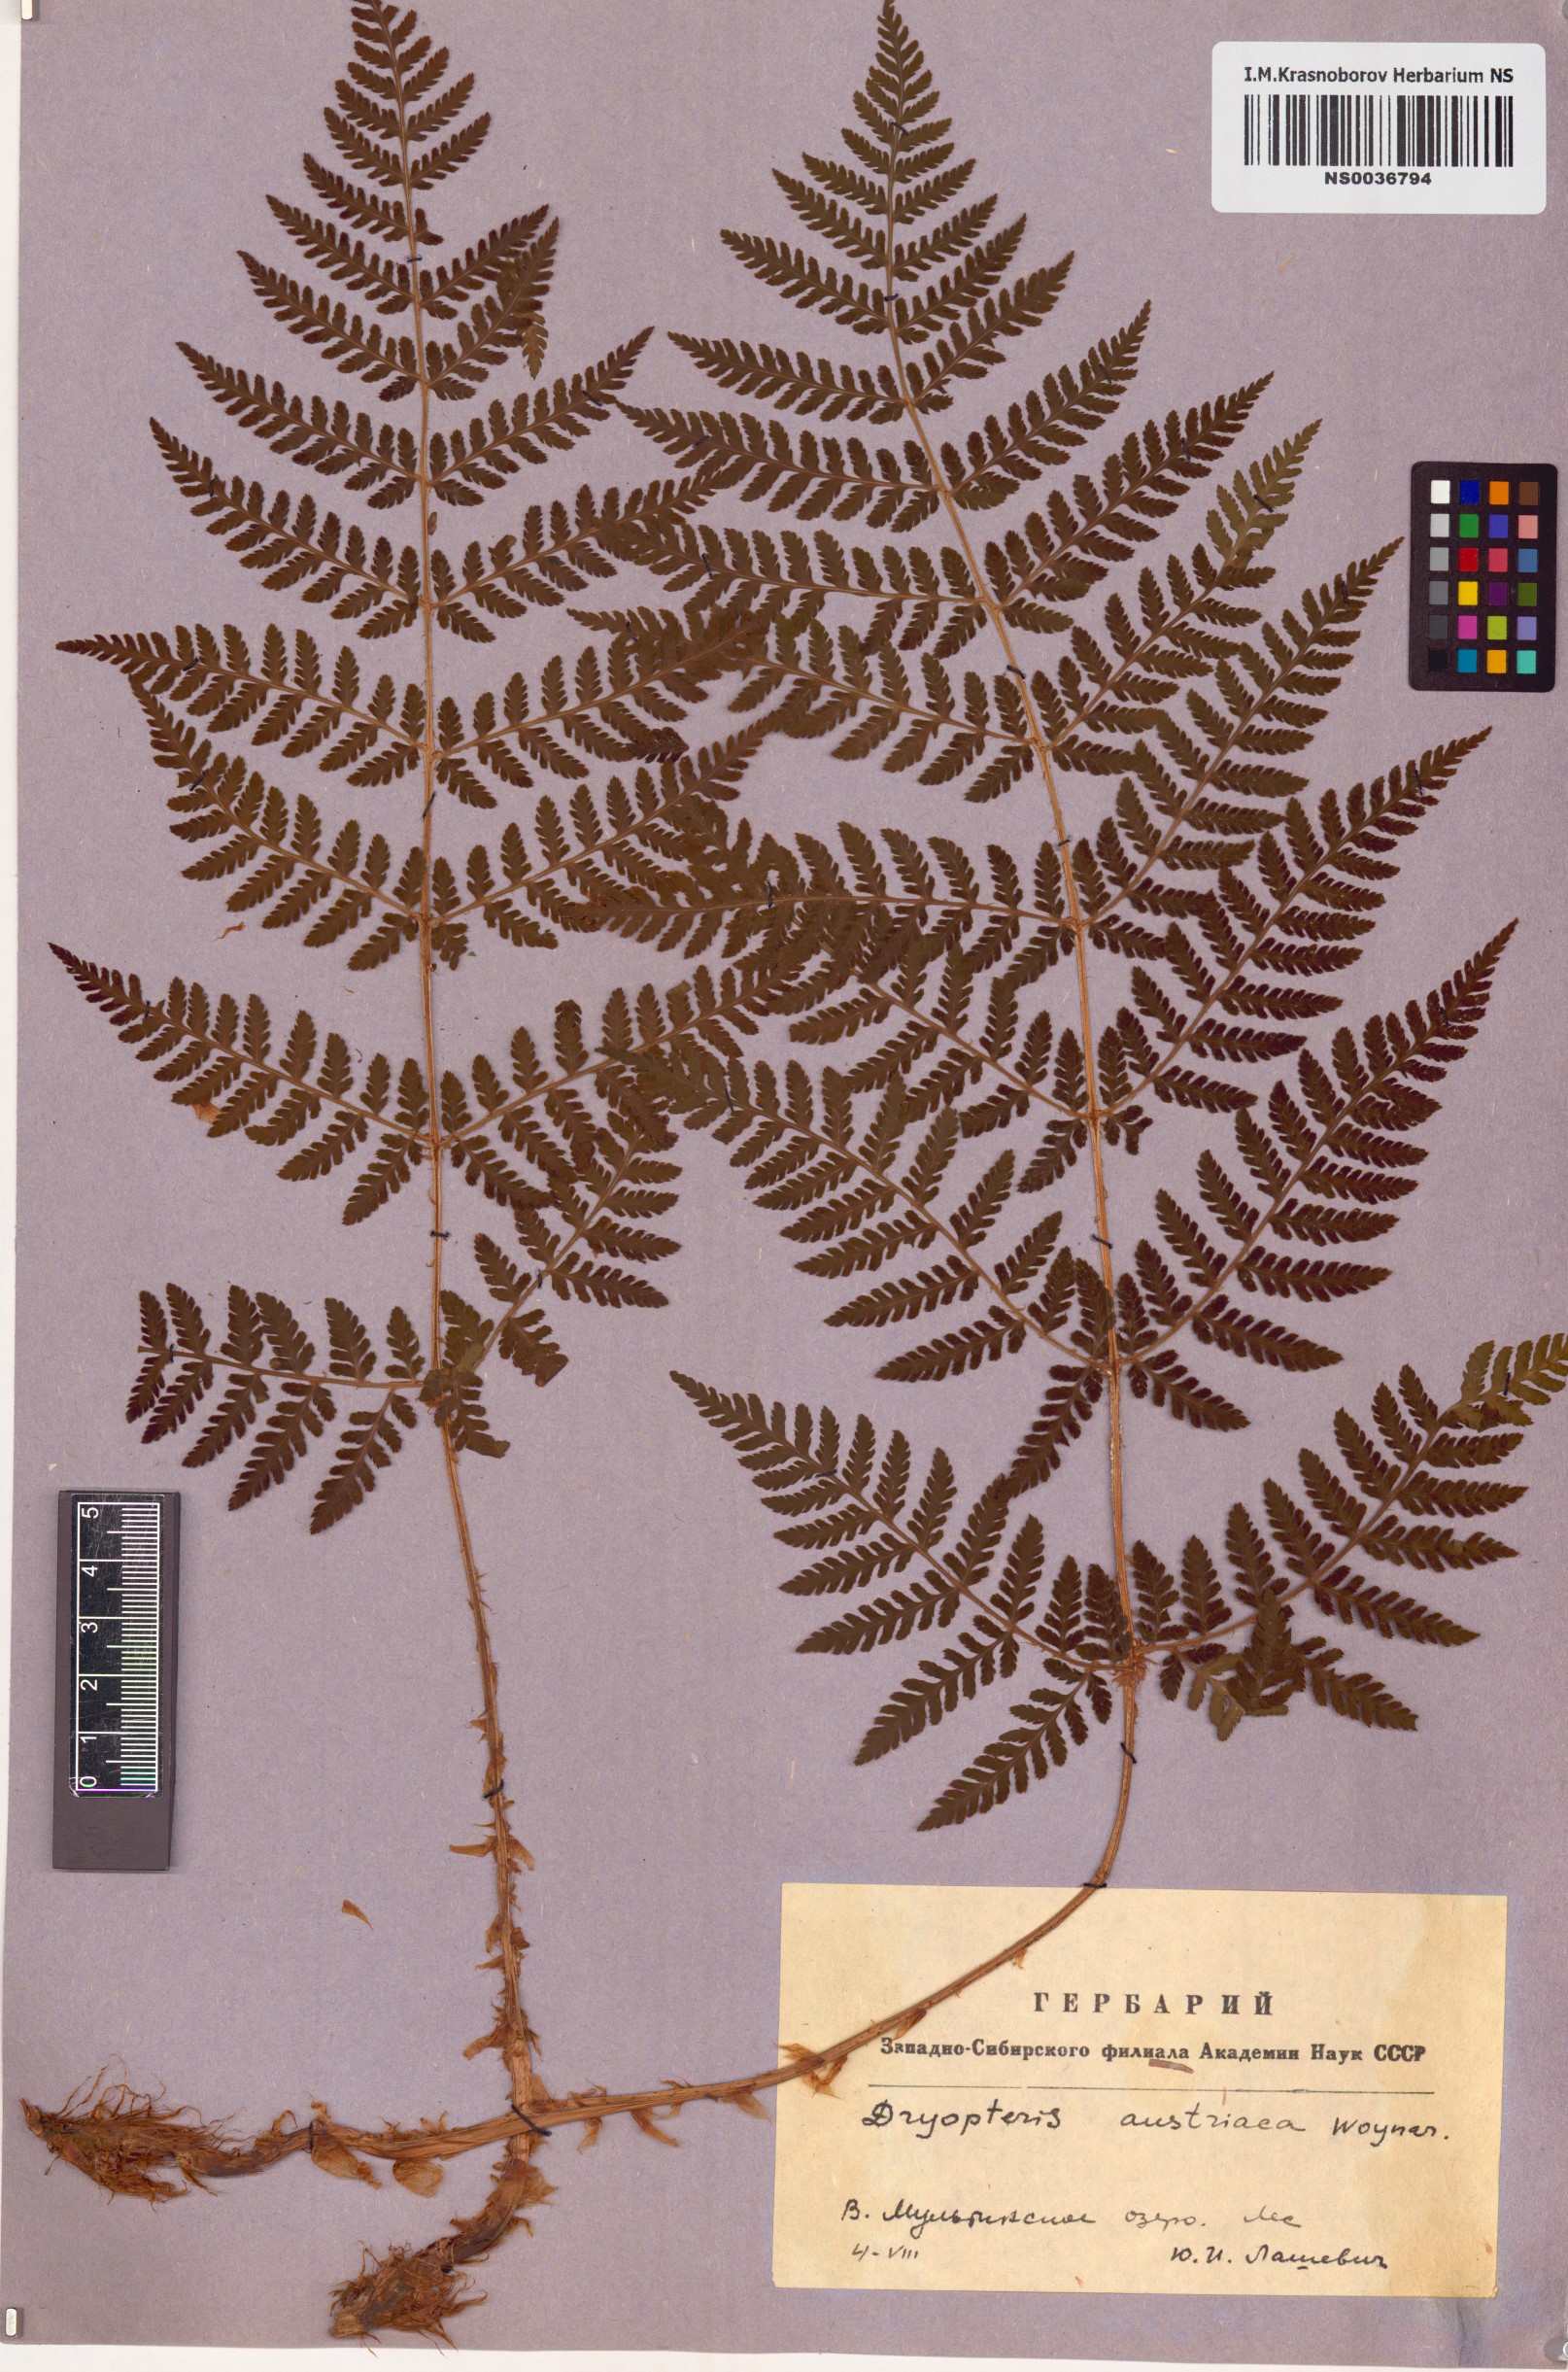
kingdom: Plantae
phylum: Tracheophyta
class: Polypodiopsida
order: Polypodiales
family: Dryopteridaceae
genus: Dryopteris
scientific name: Dryopteris dilatata
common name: Broad buckler-fern
